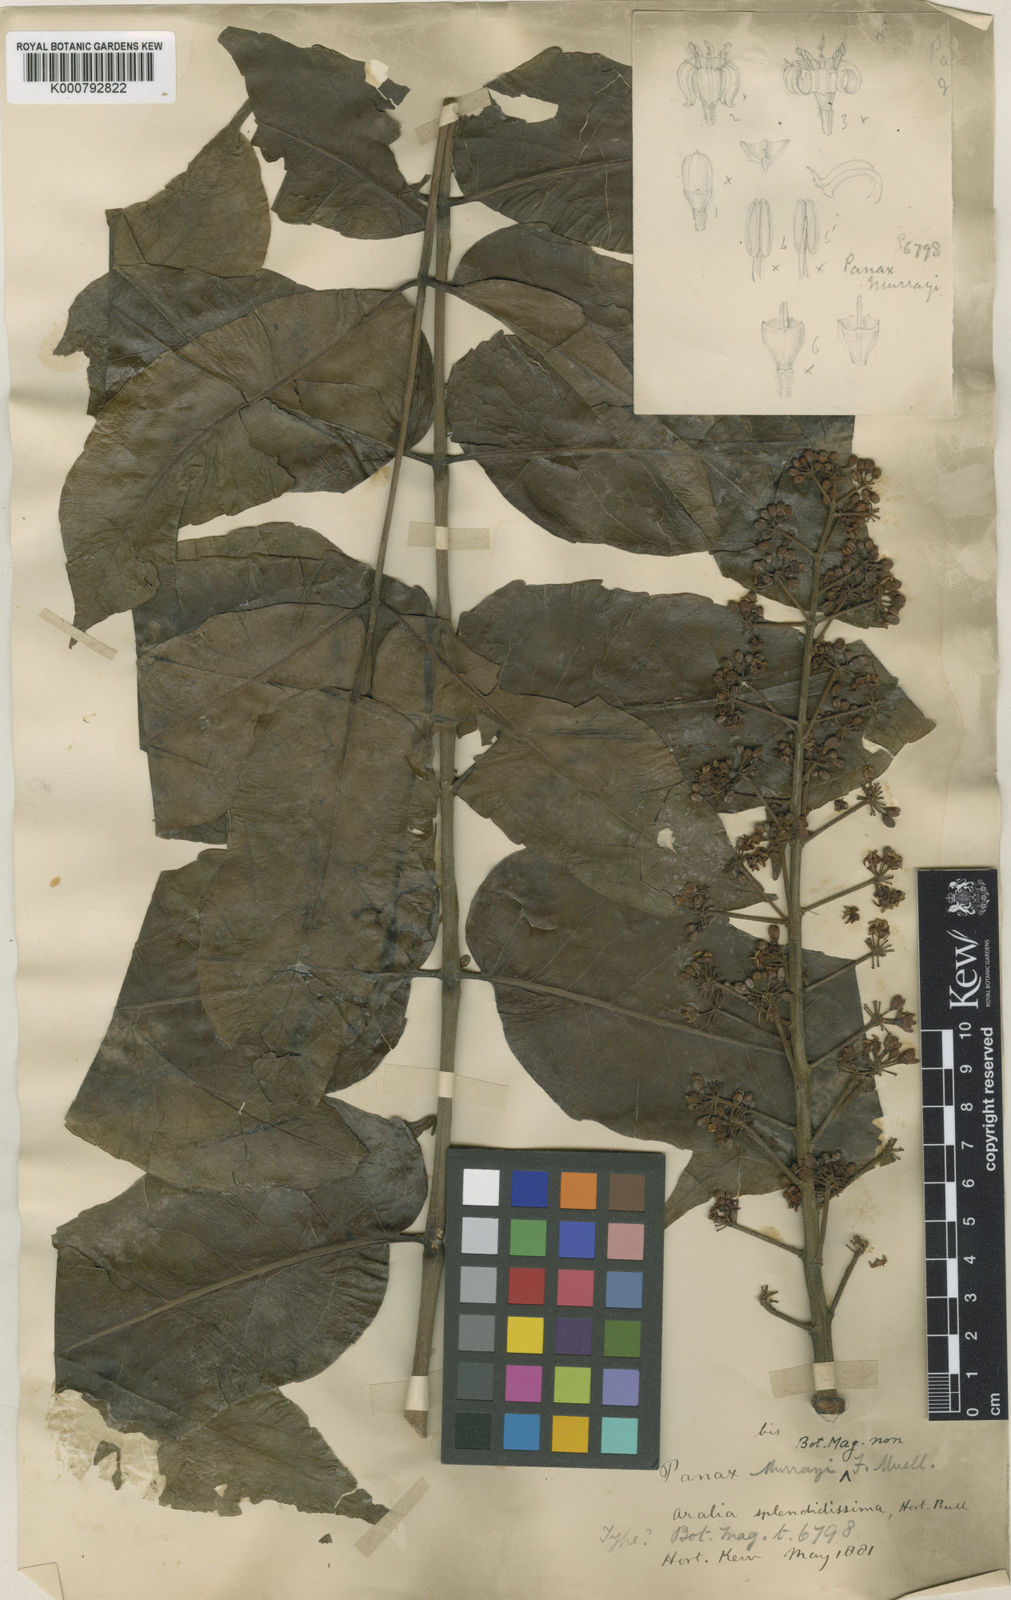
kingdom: Plantae
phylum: Tracheophyta
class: Magnoliopsida
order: Apiales
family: Araliaceae
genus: Polyscias
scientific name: Polyscias crenata
